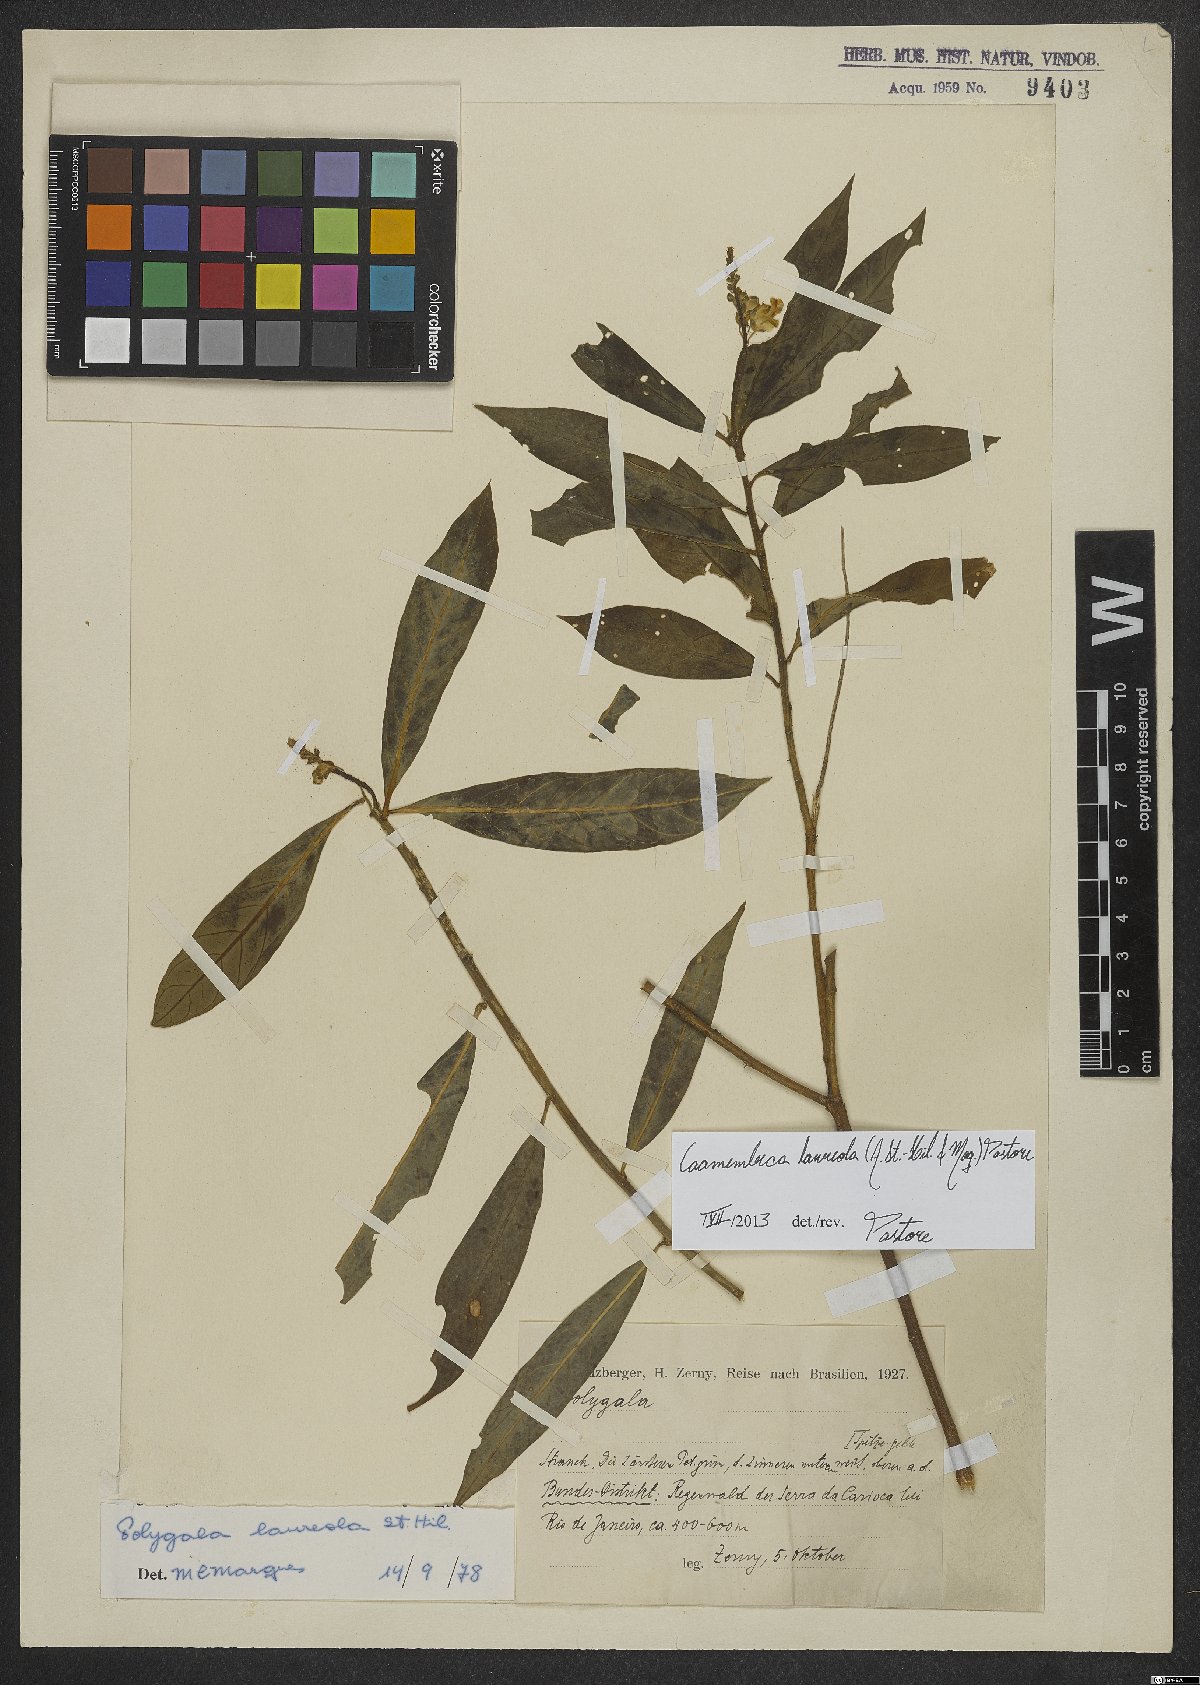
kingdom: Plantae
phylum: Tracheophyta
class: Magnoliopsida
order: Fabales
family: Polygalaceae
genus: Caamembeca
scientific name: Caamembeca salicifolia
